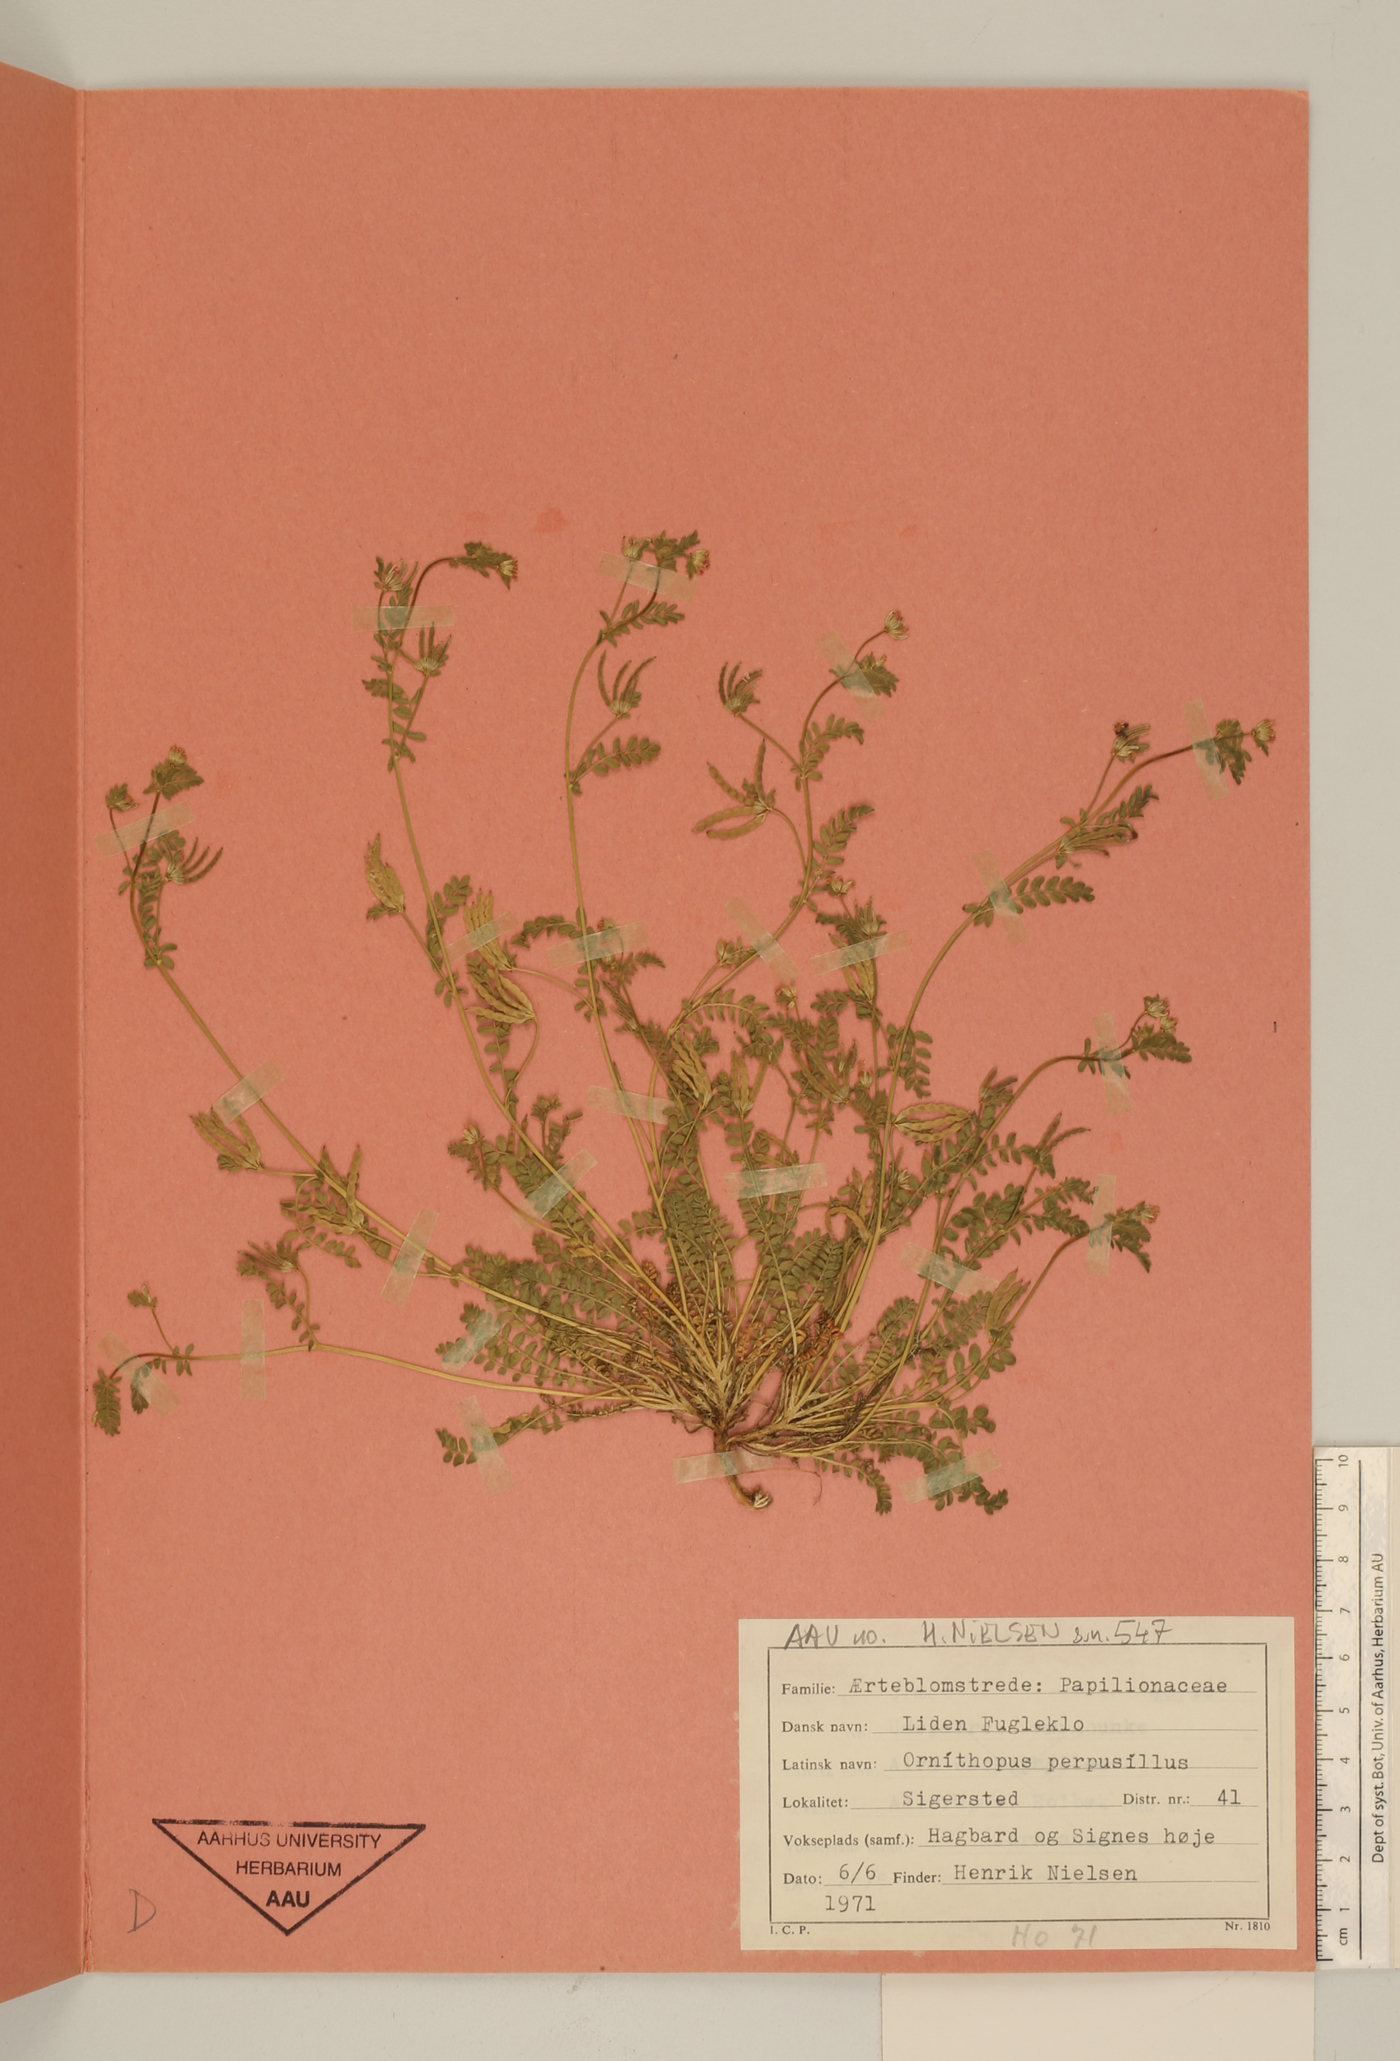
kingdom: Plantae
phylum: Tracheophyta
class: Magnoliopsida
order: Fabales
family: Fabaceae
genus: Ornithopus
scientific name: Ornithopus perpusillus
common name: Bird's-foot
